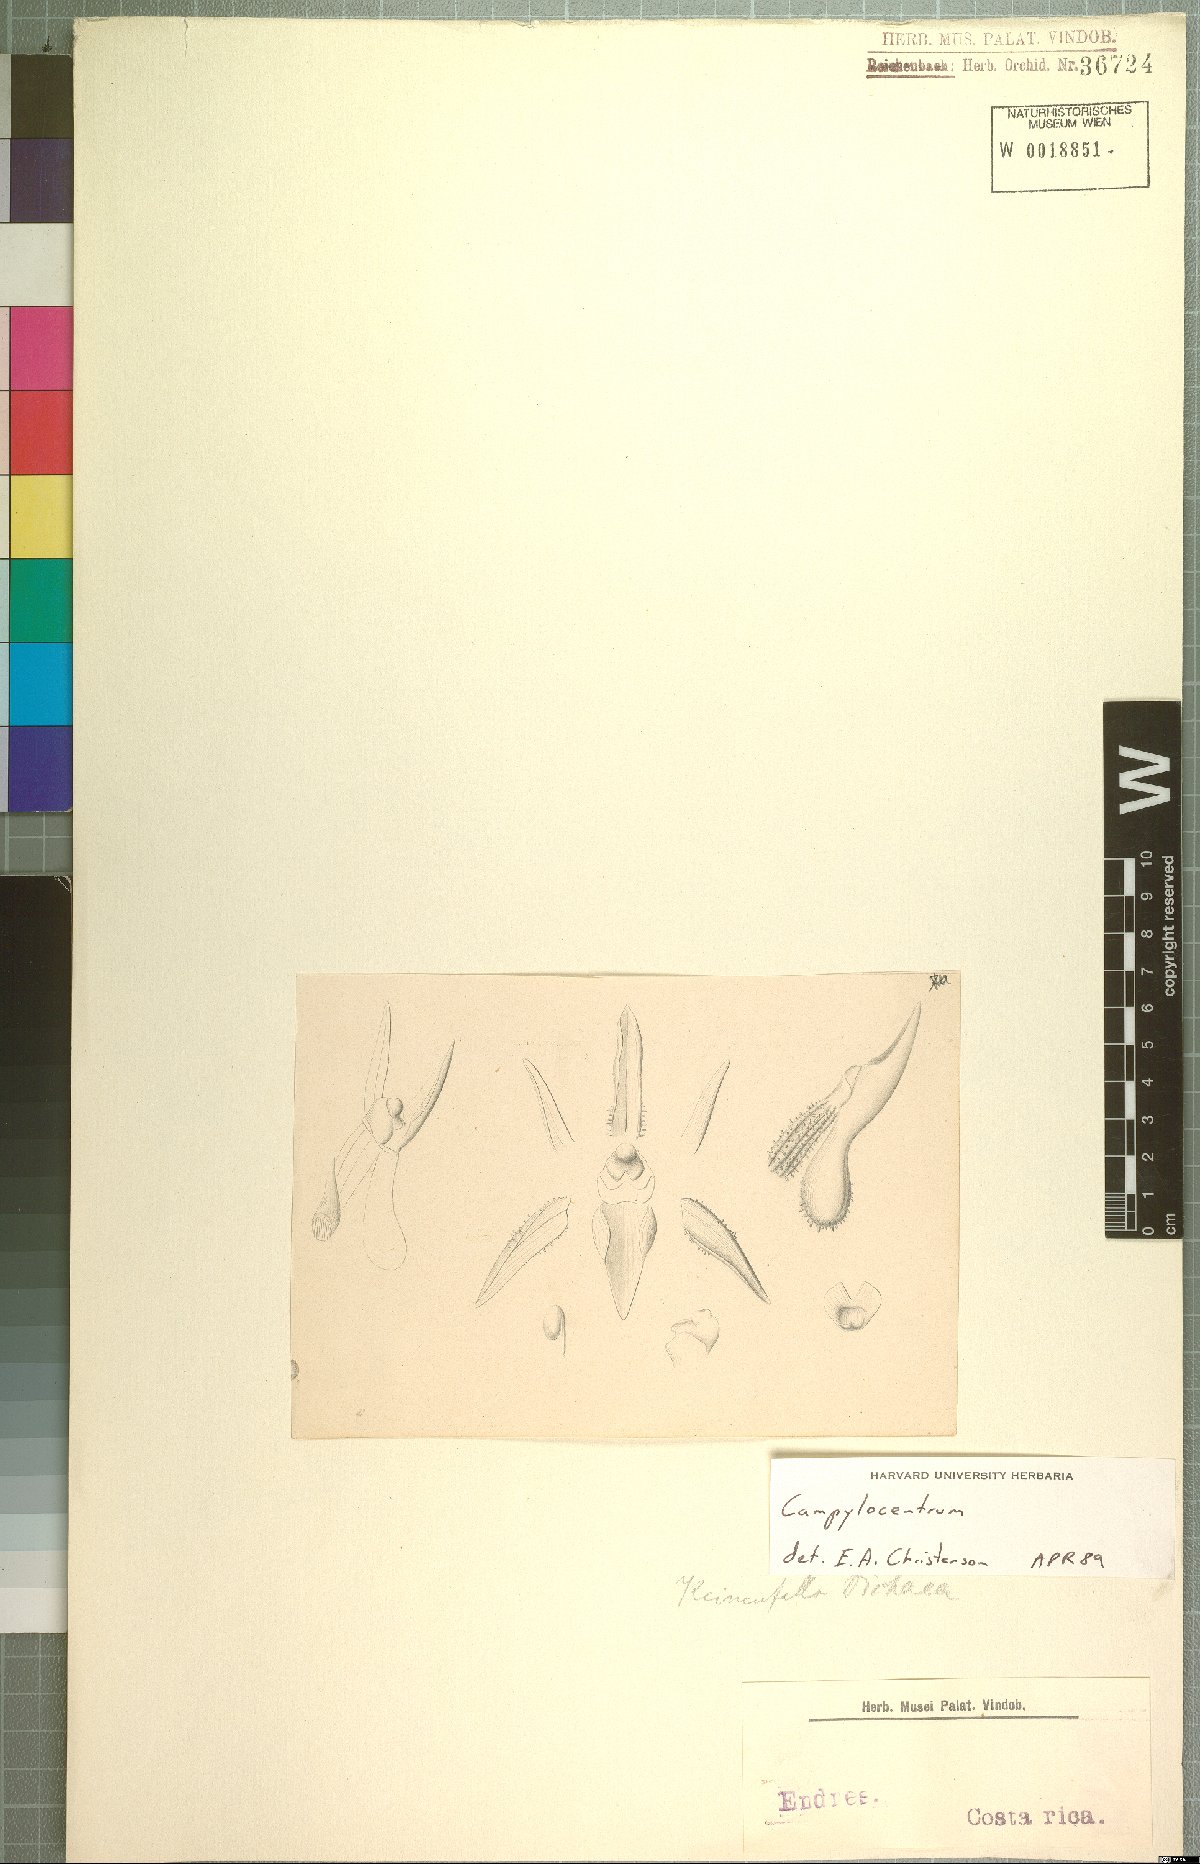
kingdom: Plantae
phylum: Tracheophyta
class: Liliopsida
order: Asparagales
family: Orchidaceae
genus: Campylocentrum
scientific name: Campylocentrum
